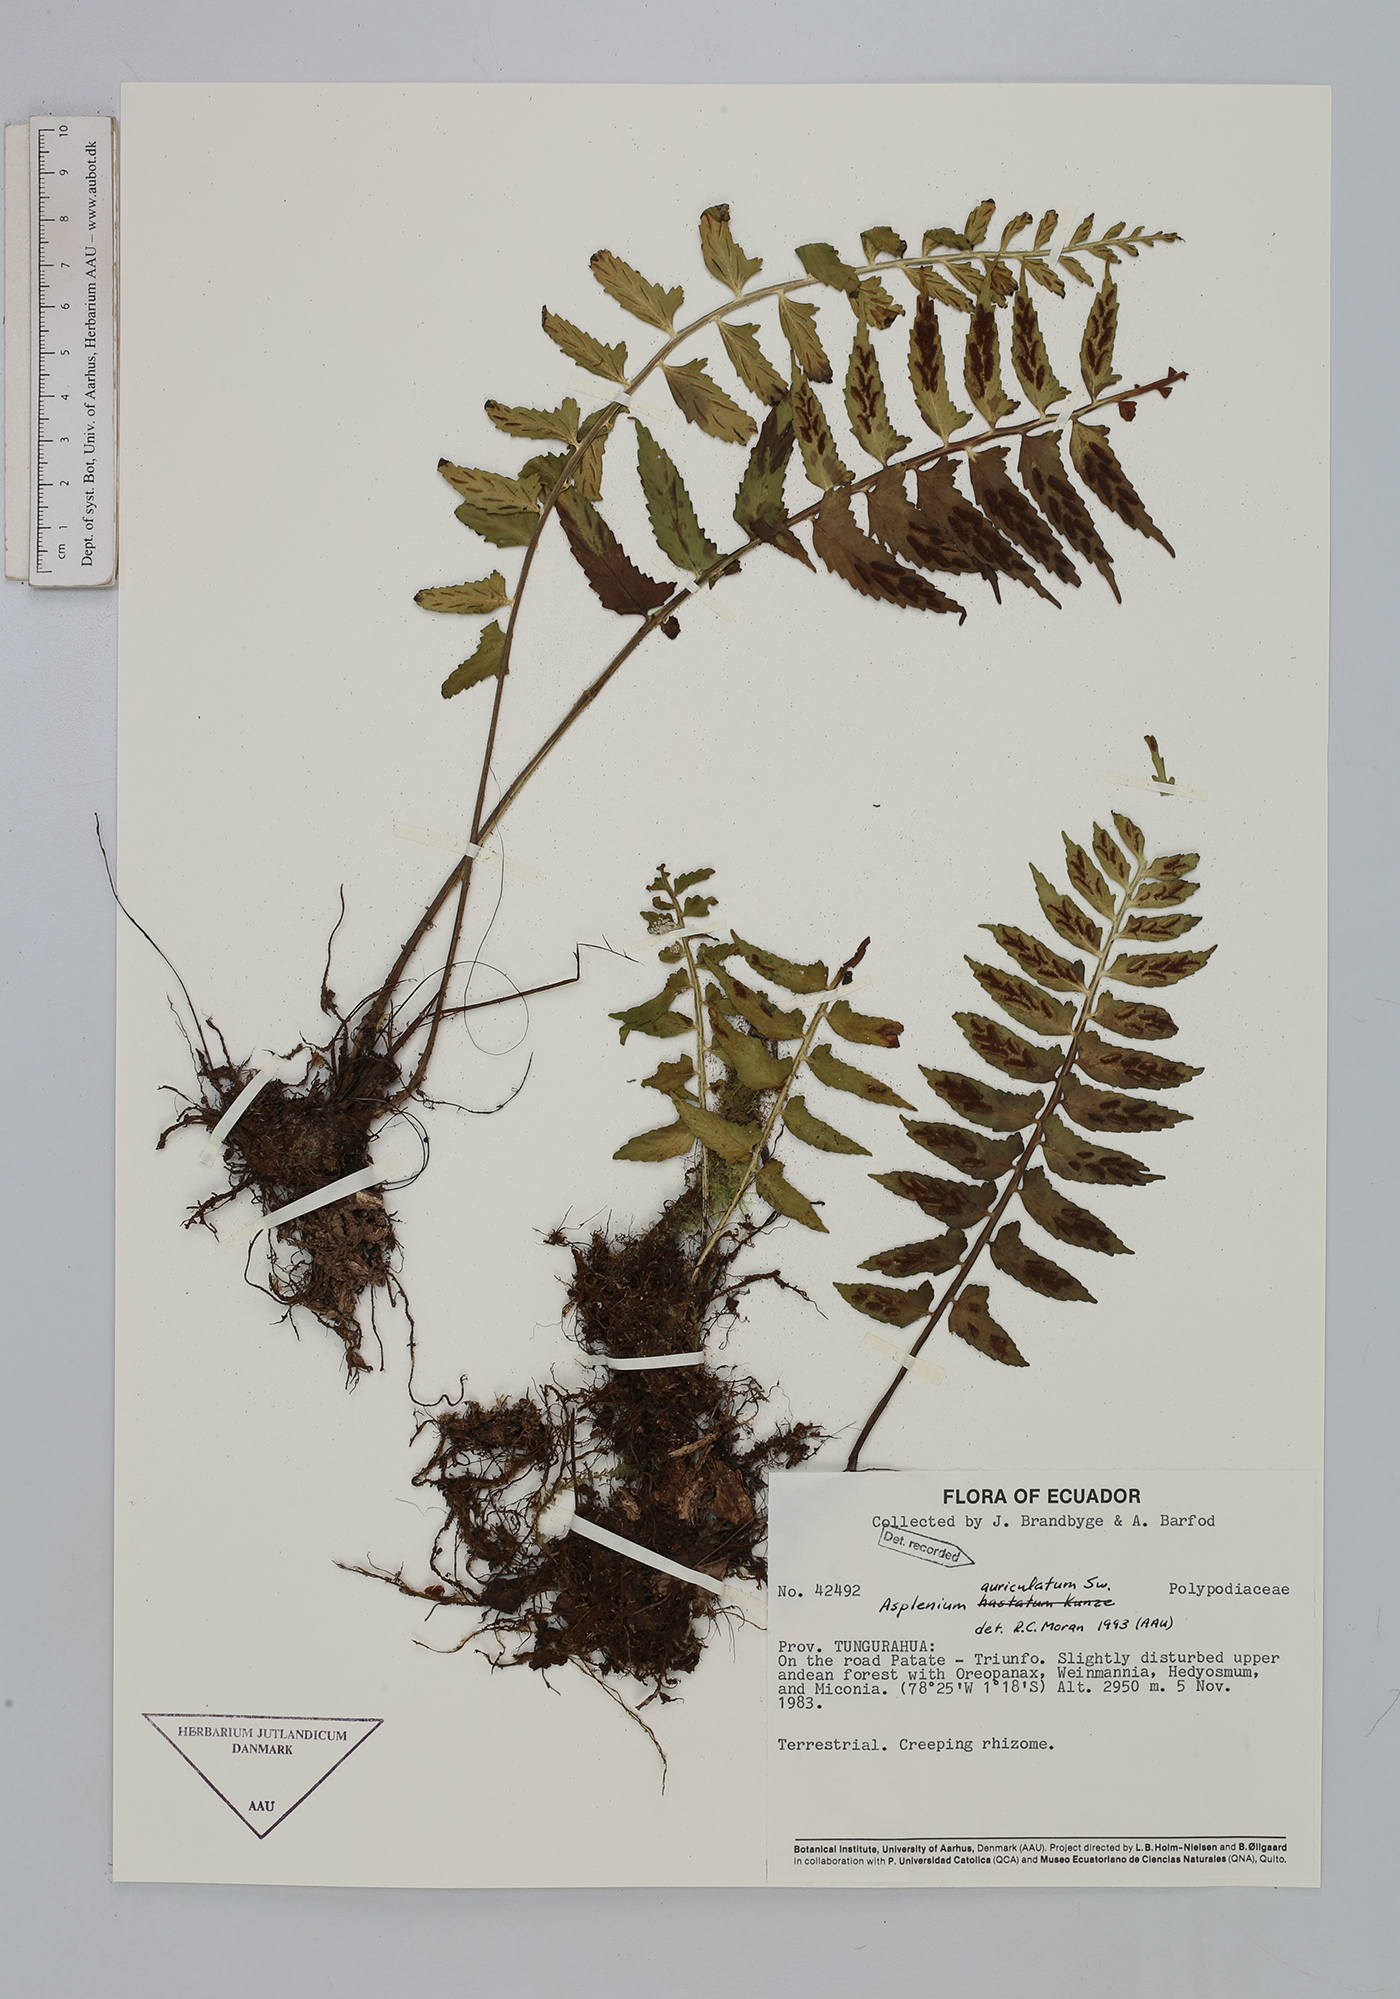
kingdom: Plantae
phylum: Tracheophyta
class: Polypodiopsida
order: Polypodiales
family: Aspleniaceae
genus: Asplenium
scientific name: Asplenium auriculatum
